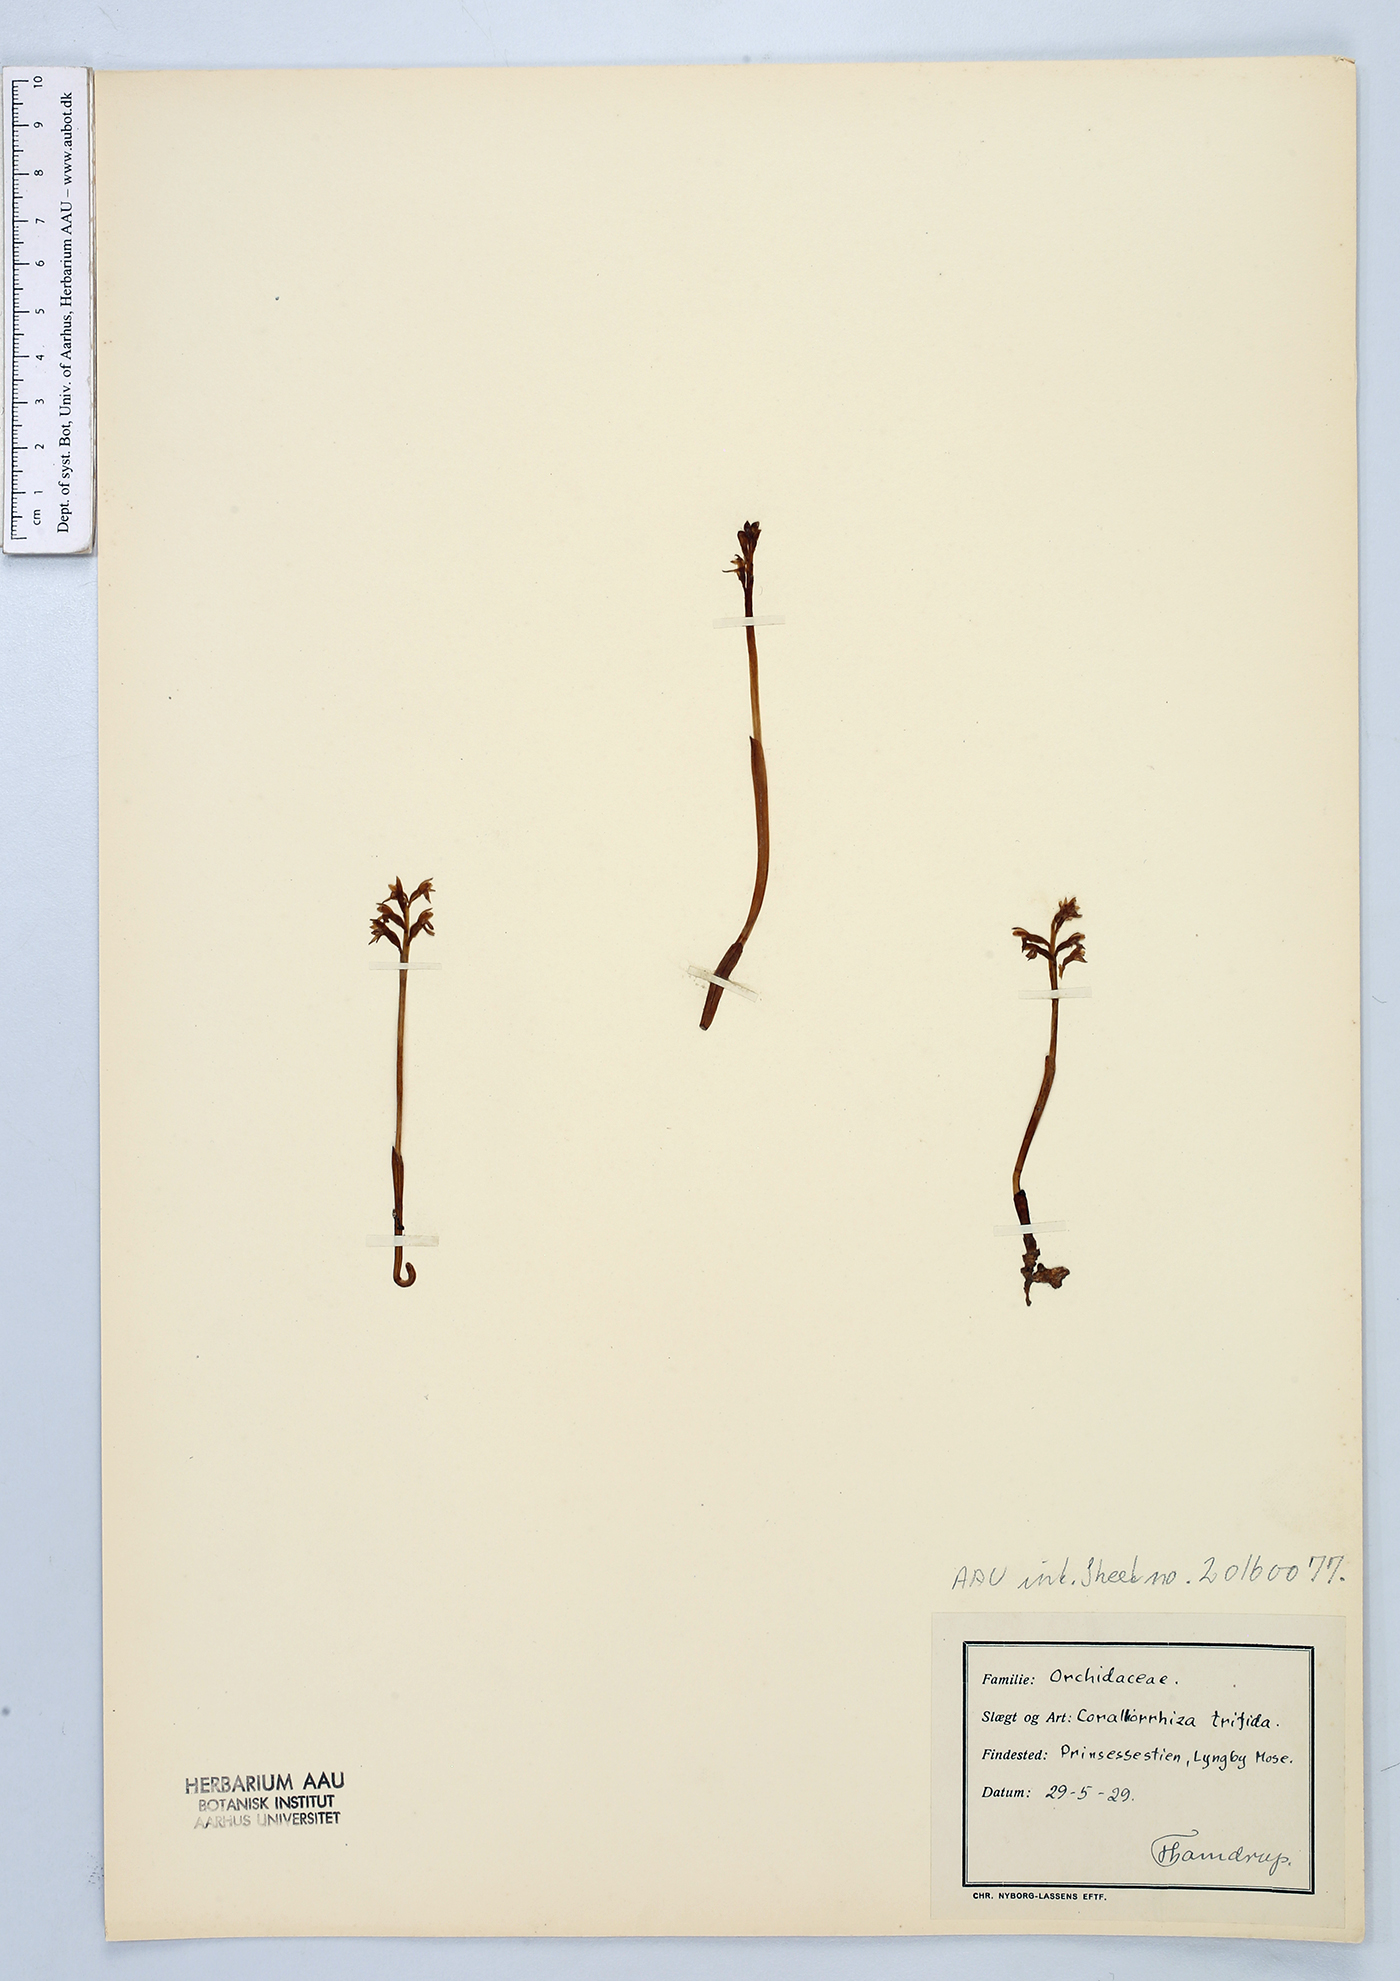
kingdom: Plantae
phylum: Tracheophyta
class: Liliopsida
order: Asparagales
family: Orchidaceae
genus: Corallorhiza
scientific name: Corallorhiza trifida
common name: Yellow coralroot
